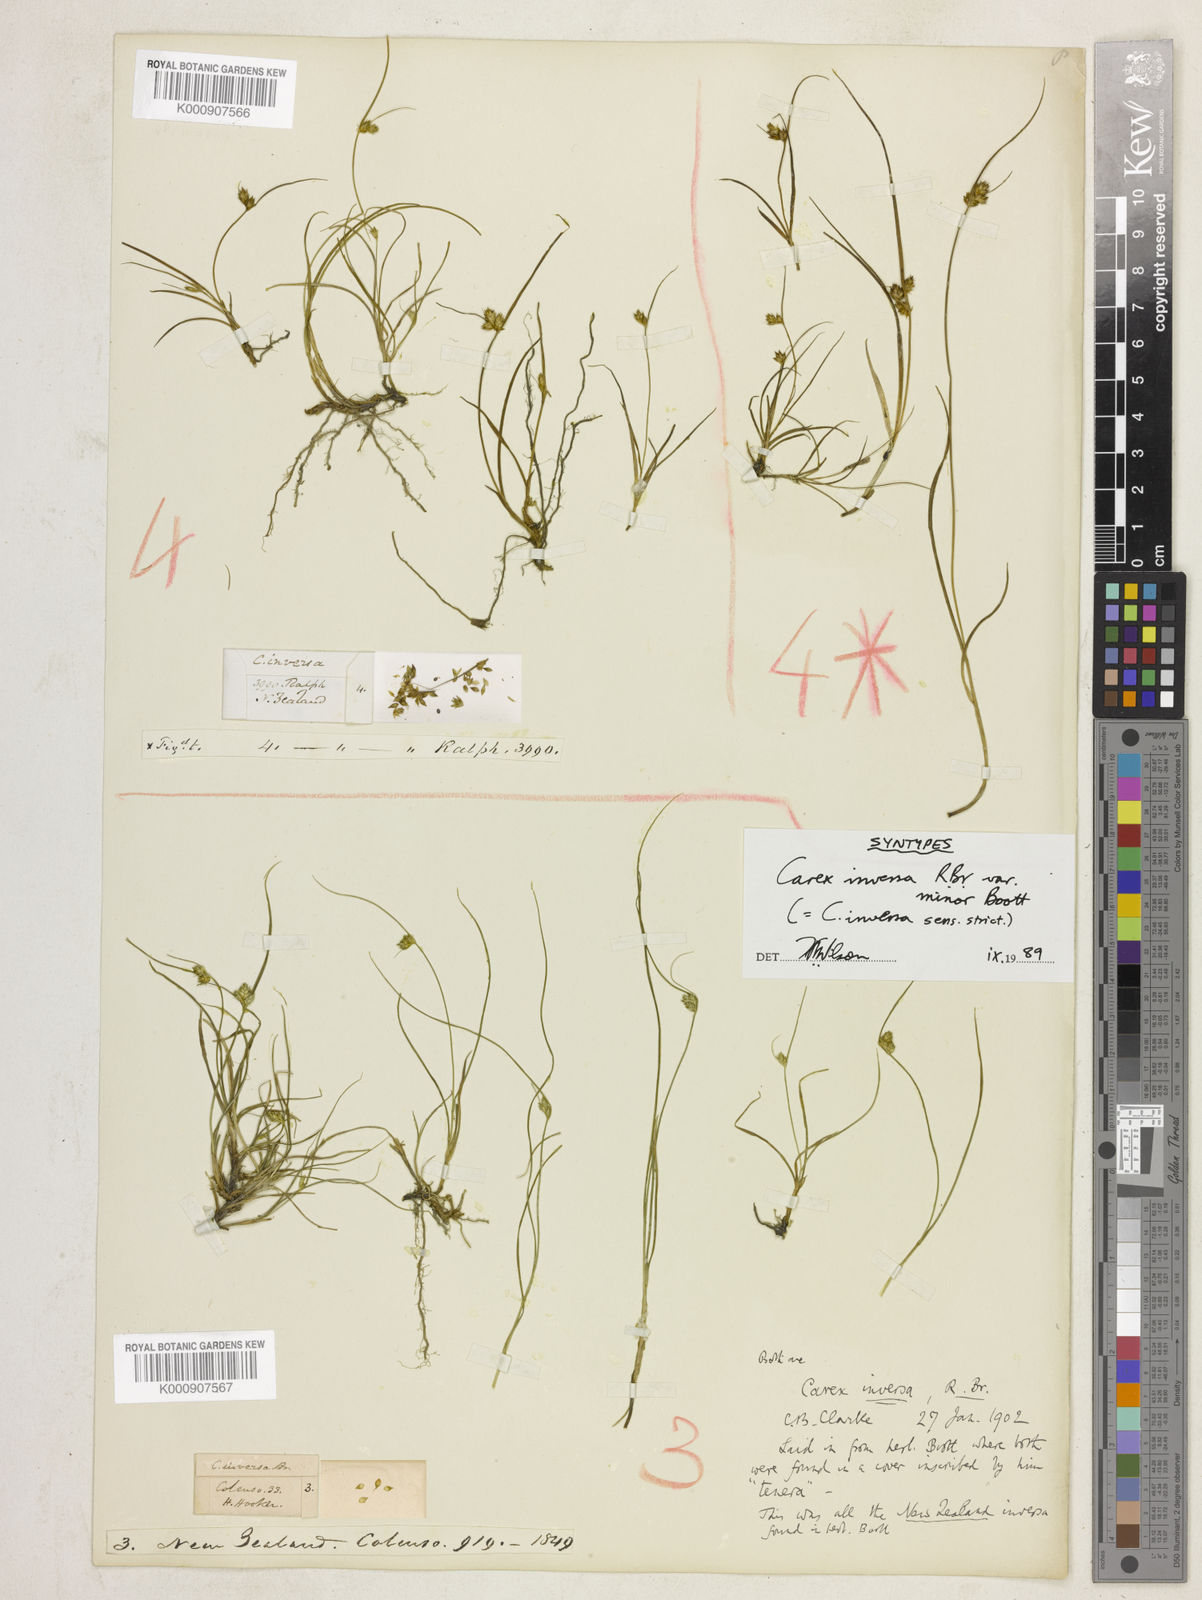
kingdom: Plantae
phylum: Tracheophyta
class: Liliopsida
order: Poales
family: Cyperaceae
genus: Carex
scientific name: Carex inversa
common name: Knob sedge
